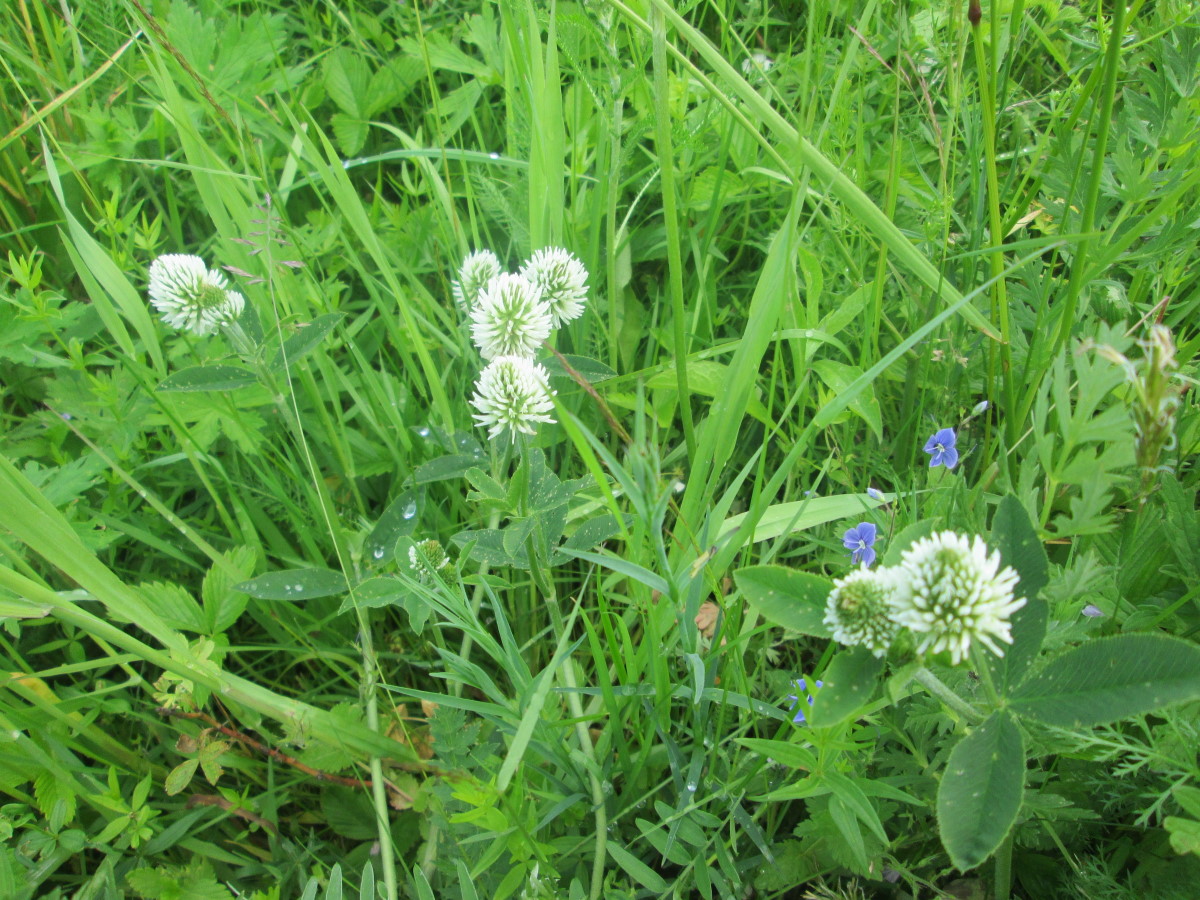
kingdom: Plantae
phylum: Tracheophyta
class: Magnoliopsida
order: Fabales
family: Fabaceae
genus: Trifolium
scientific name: Trifolium montanum
